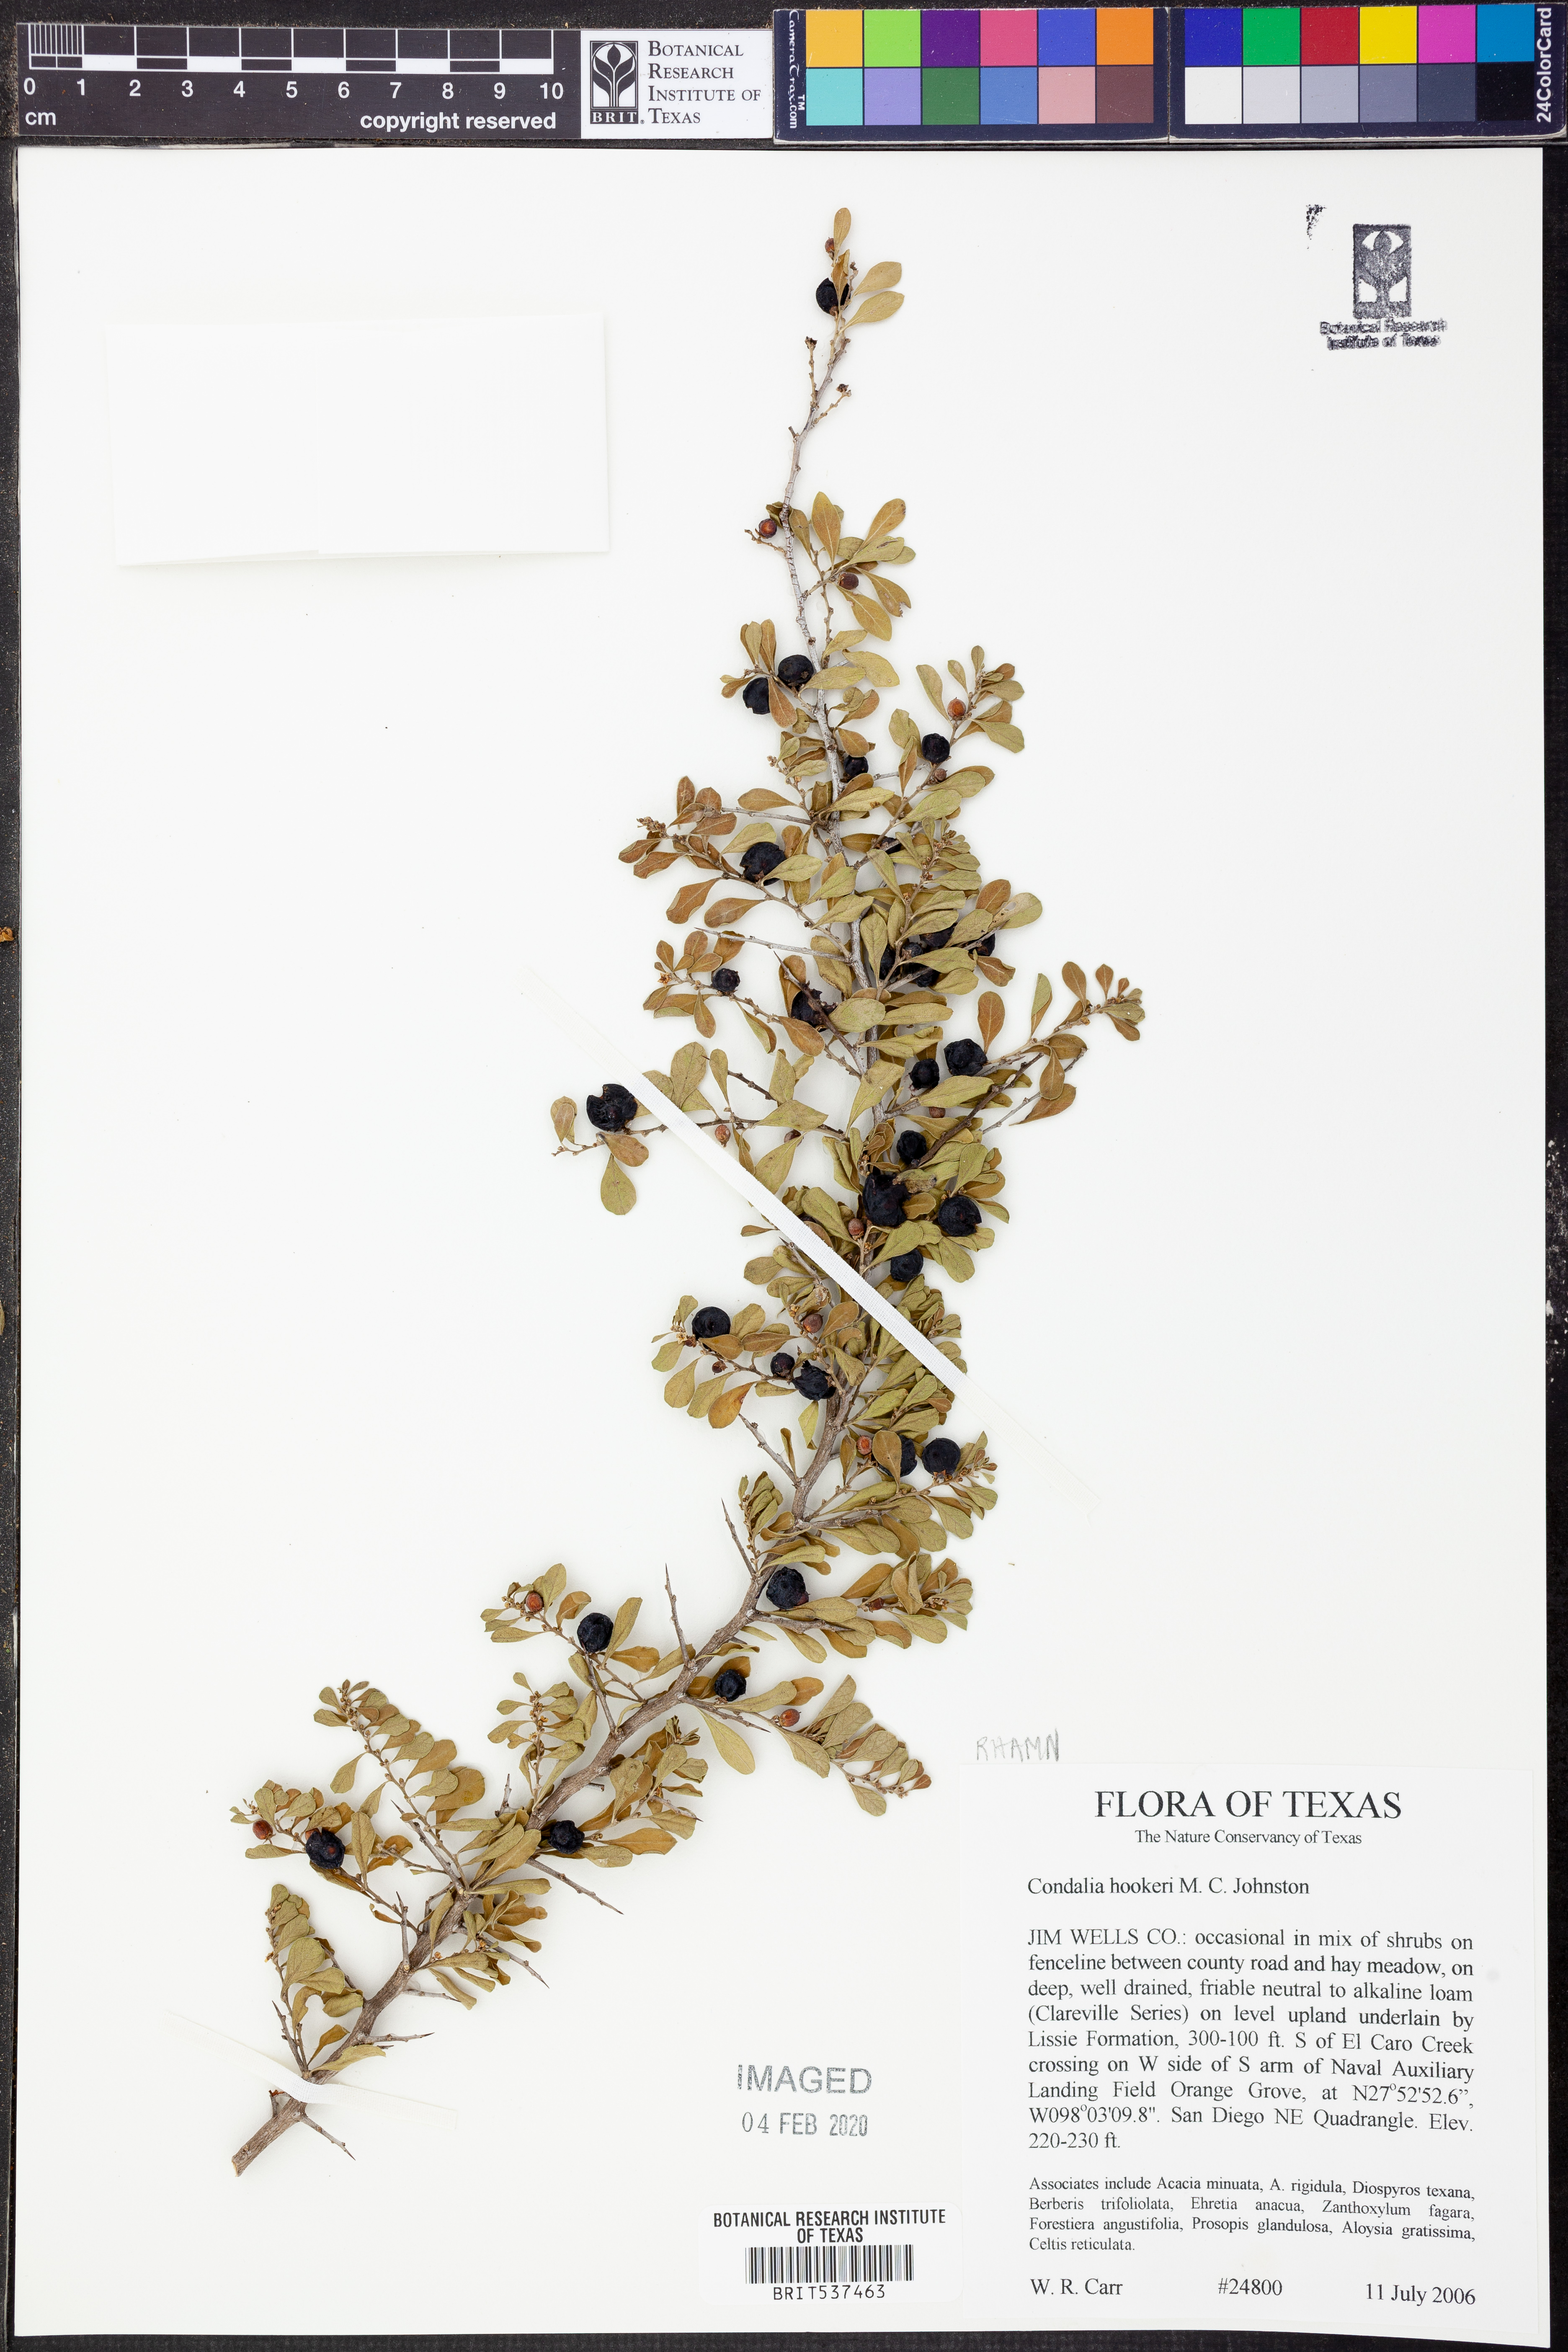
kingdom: Plantae
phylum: Tracheophyta
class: Magnoliopsida
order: Rosales
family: Rhamnaceae
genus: Condalia
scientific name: Condalia hookeri
